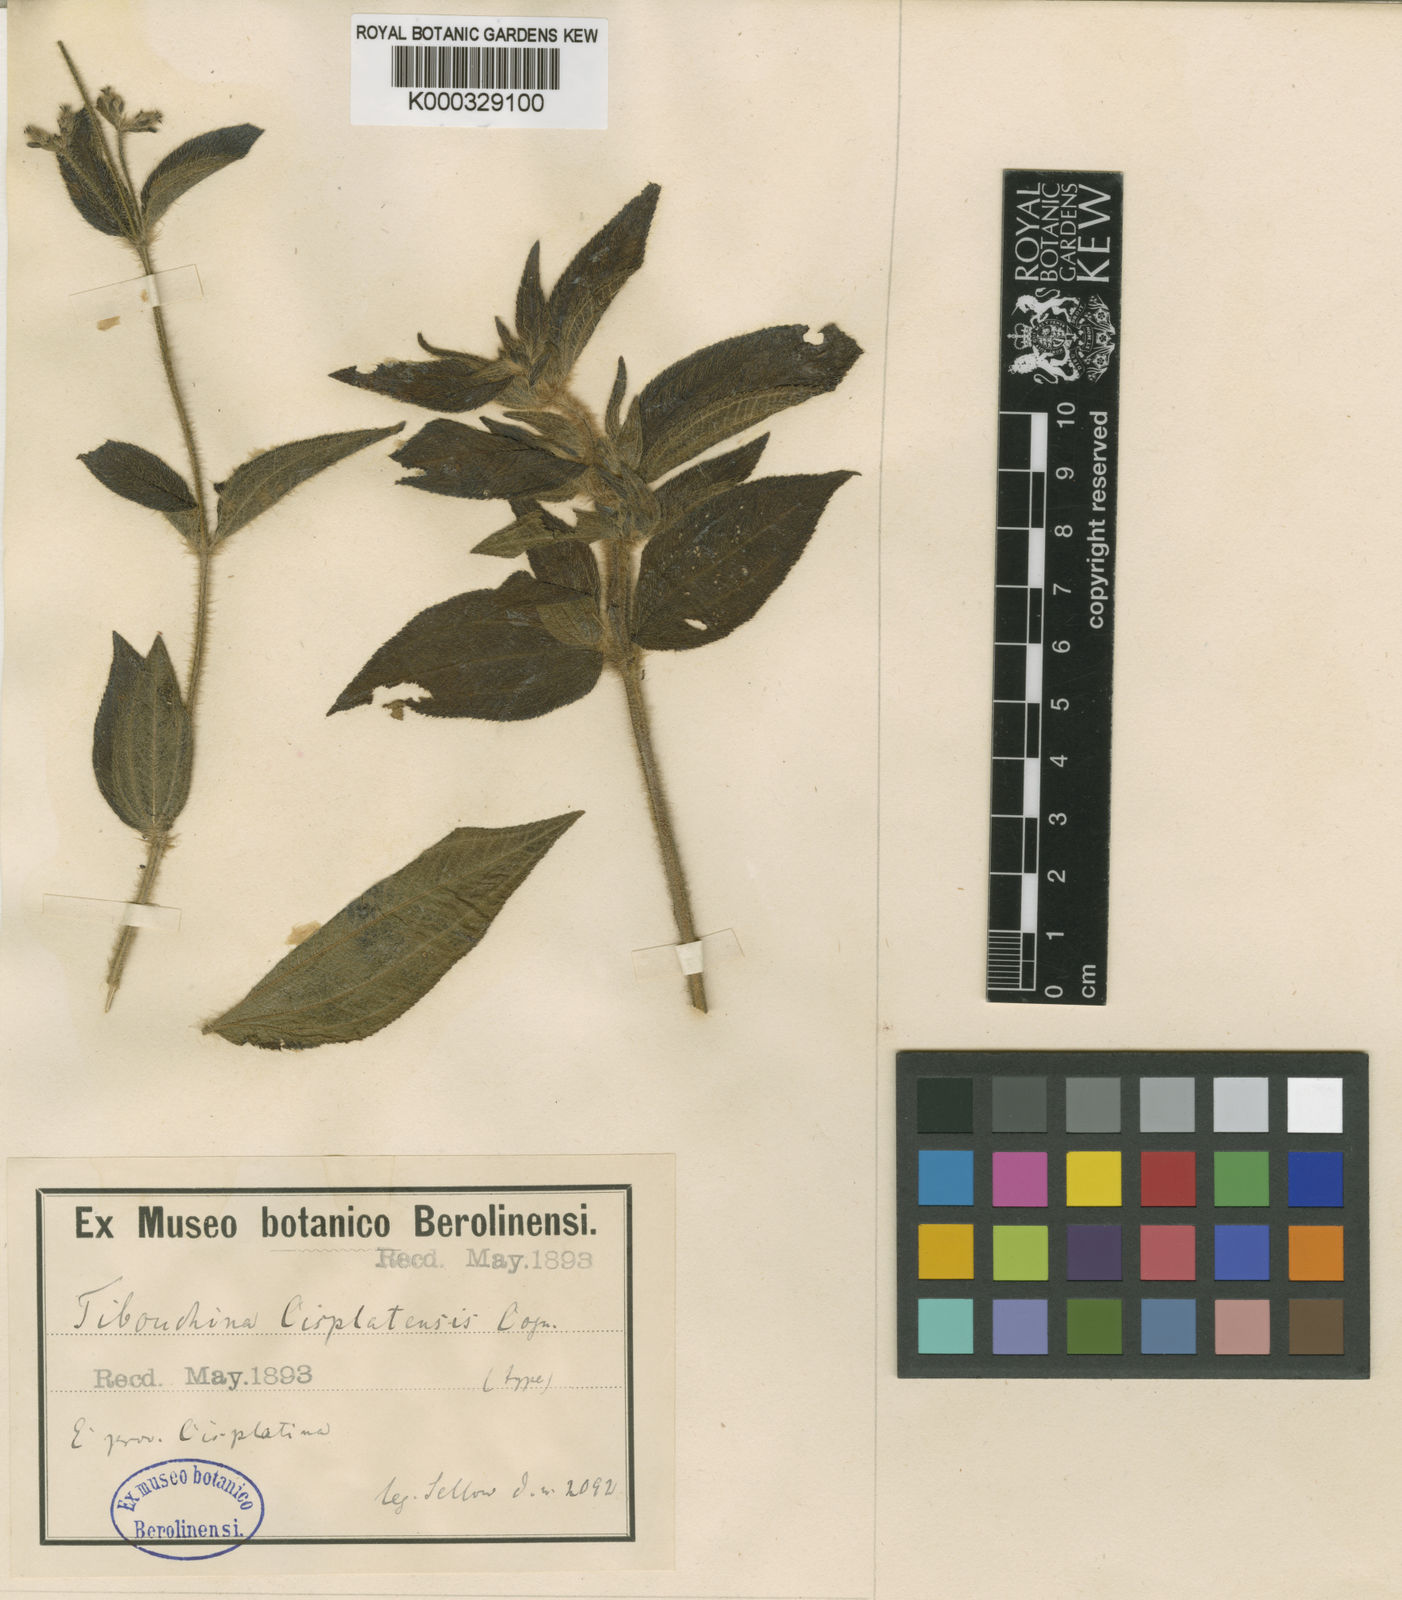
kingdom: Plantae
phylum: Tracheophyta
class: Magnoliopsida
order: Myrtales
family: Melastomataceae
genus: Chaetogastra
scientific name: Chaetogastra cisplatensis
